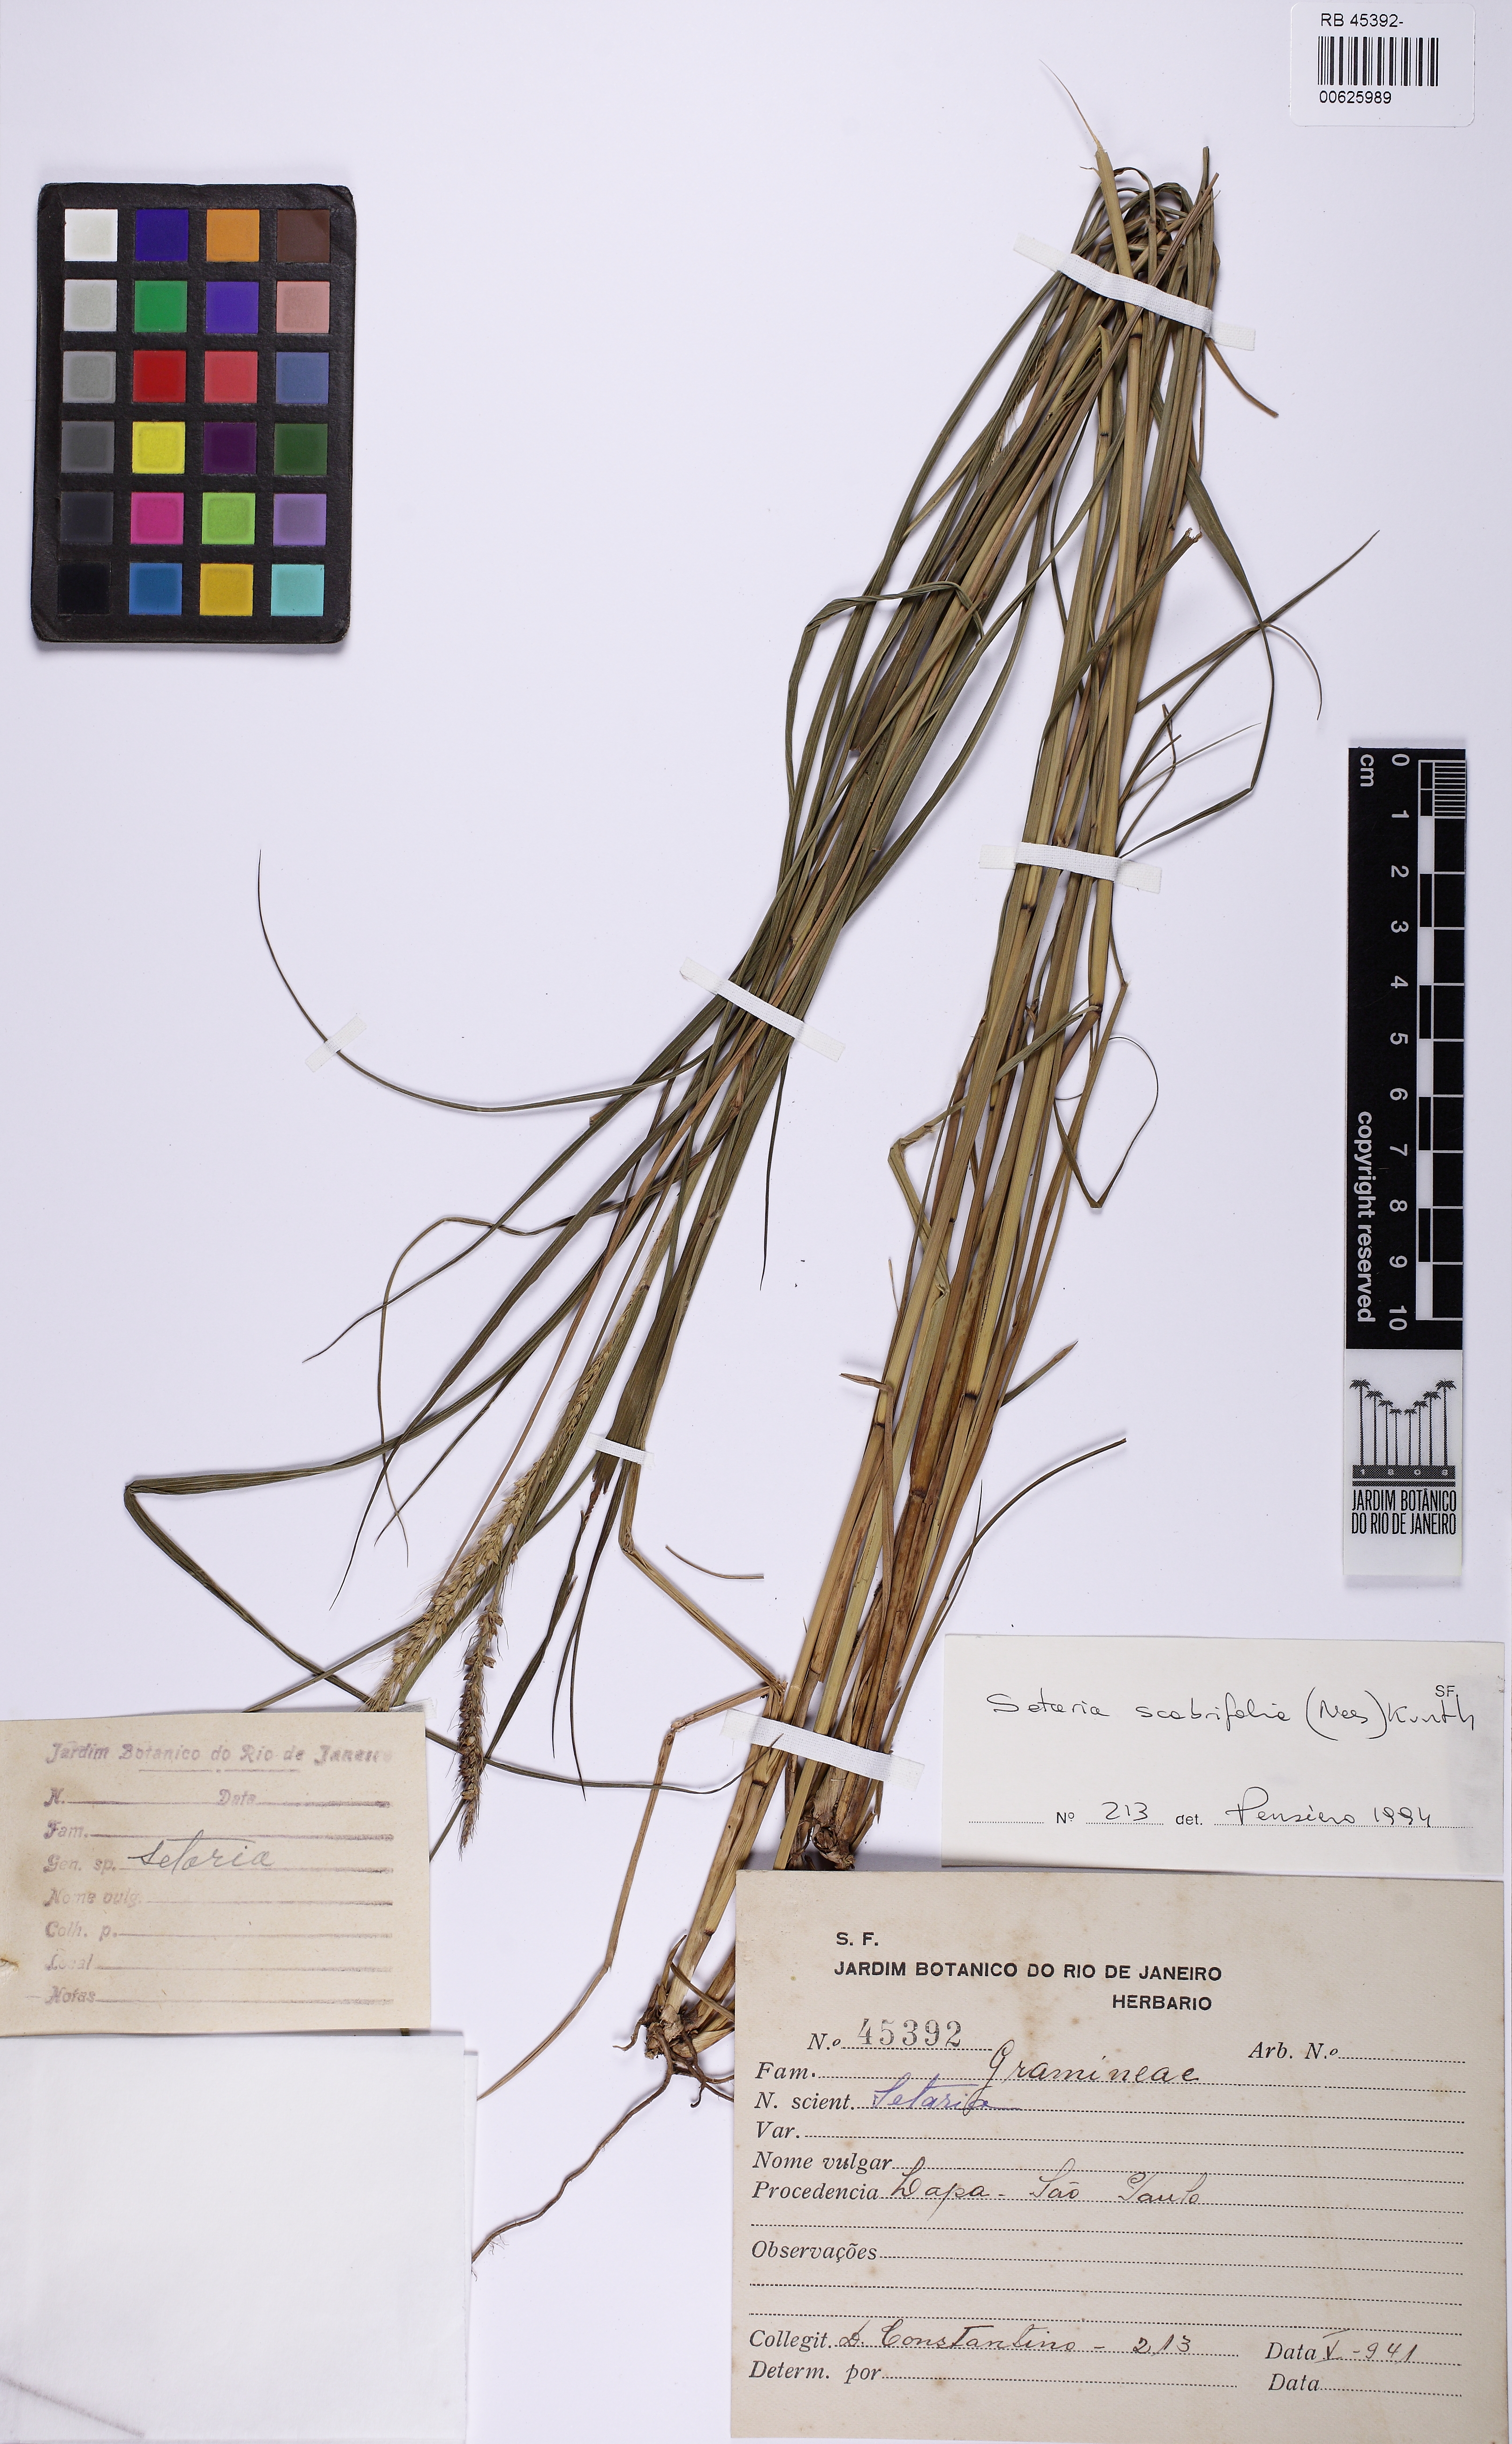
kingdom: Plantae
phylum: Tracheophyta
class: Liliopsida
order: Poales
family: Poaceae
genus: Setaria
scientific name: Setaria scabrifolia
